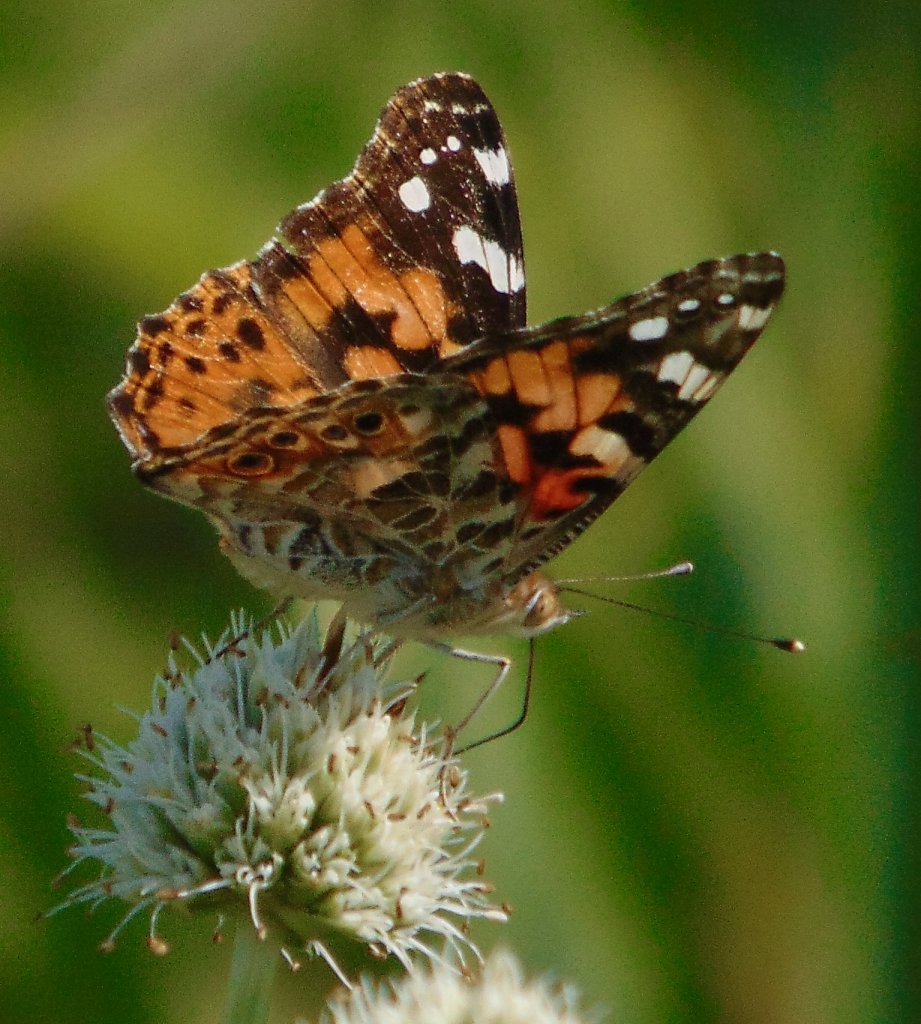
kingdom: Animalia
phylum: Arthropoda
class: Insecta
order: Lepidoptera
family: Nymphalidae
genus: Vanessa
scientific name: Vanessa cardui
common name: Painted Lady
